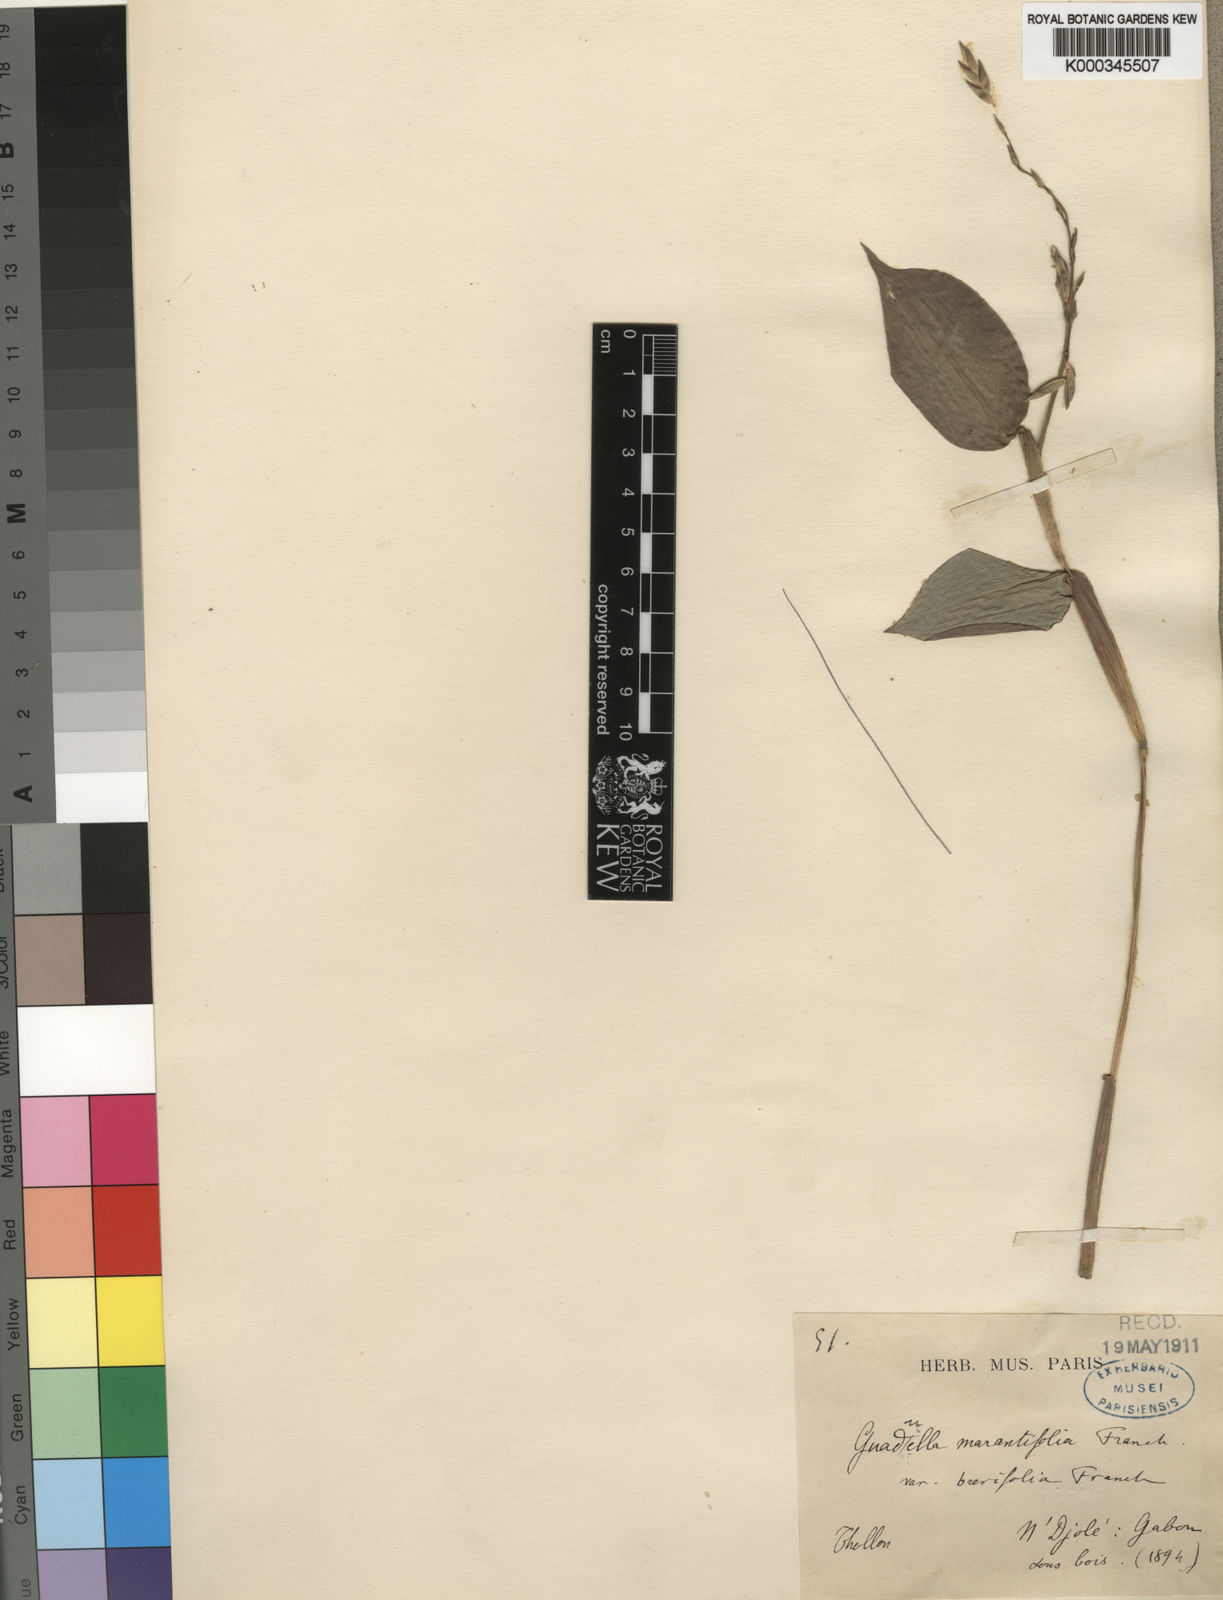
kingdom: Plantae
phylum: Tracheophyta
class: Liliopsida
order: Poales
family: Poaceae
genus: Guaduella
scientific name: Guaduella marantifolia
